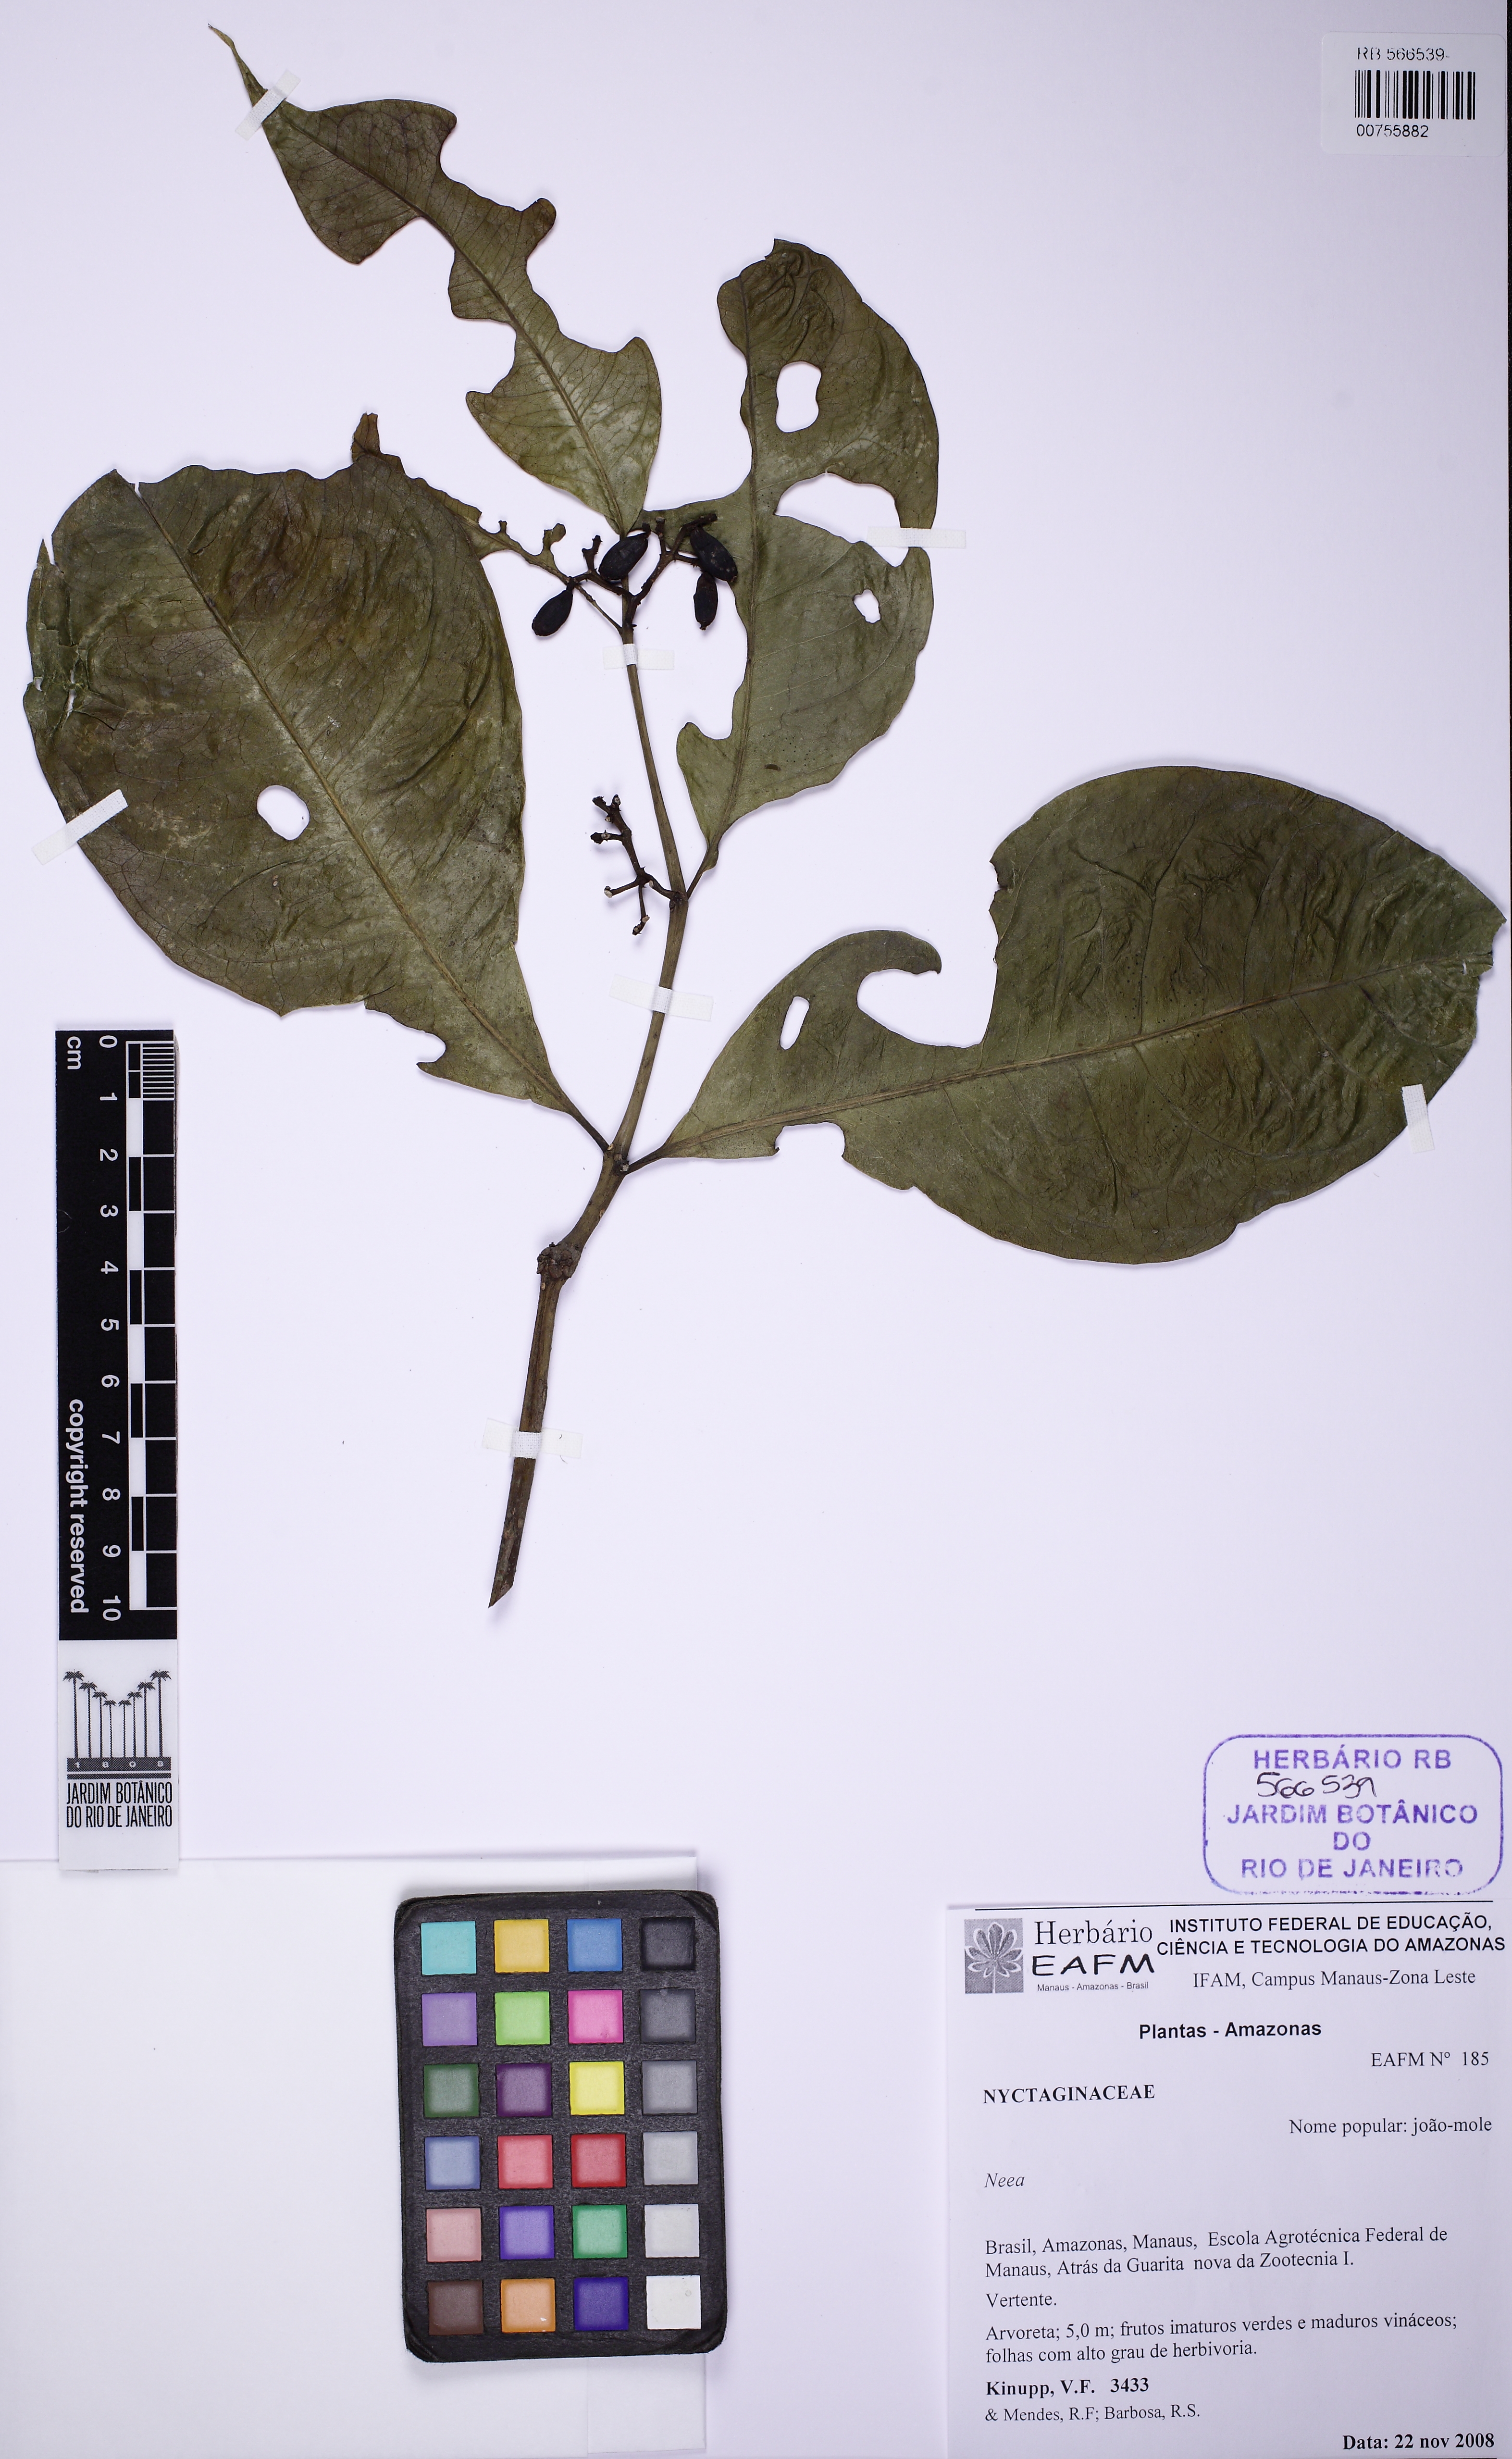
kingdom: Plantae
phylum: Tracheophyta
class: Magnoliopsida
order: Caryophyllales
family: Nyctaginaceae
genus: Neea
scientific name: Neea virens
